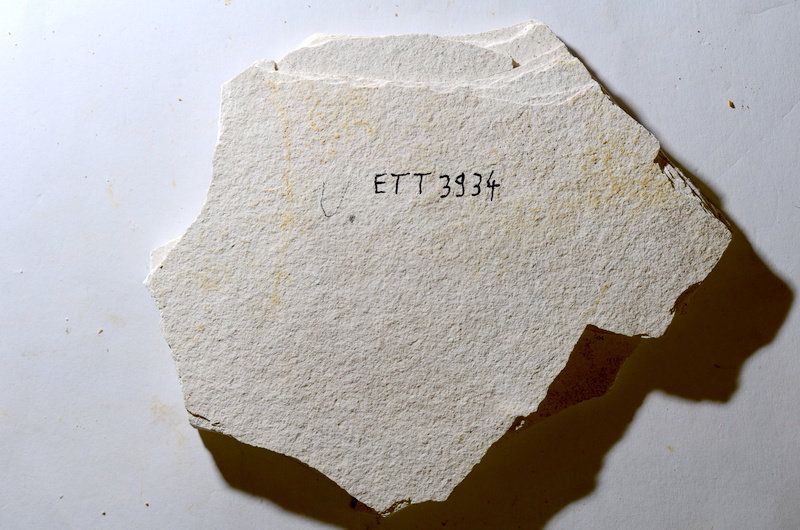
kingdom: Animalia
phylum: Chordata
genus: Thrissops
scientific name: Thrissops formosus
